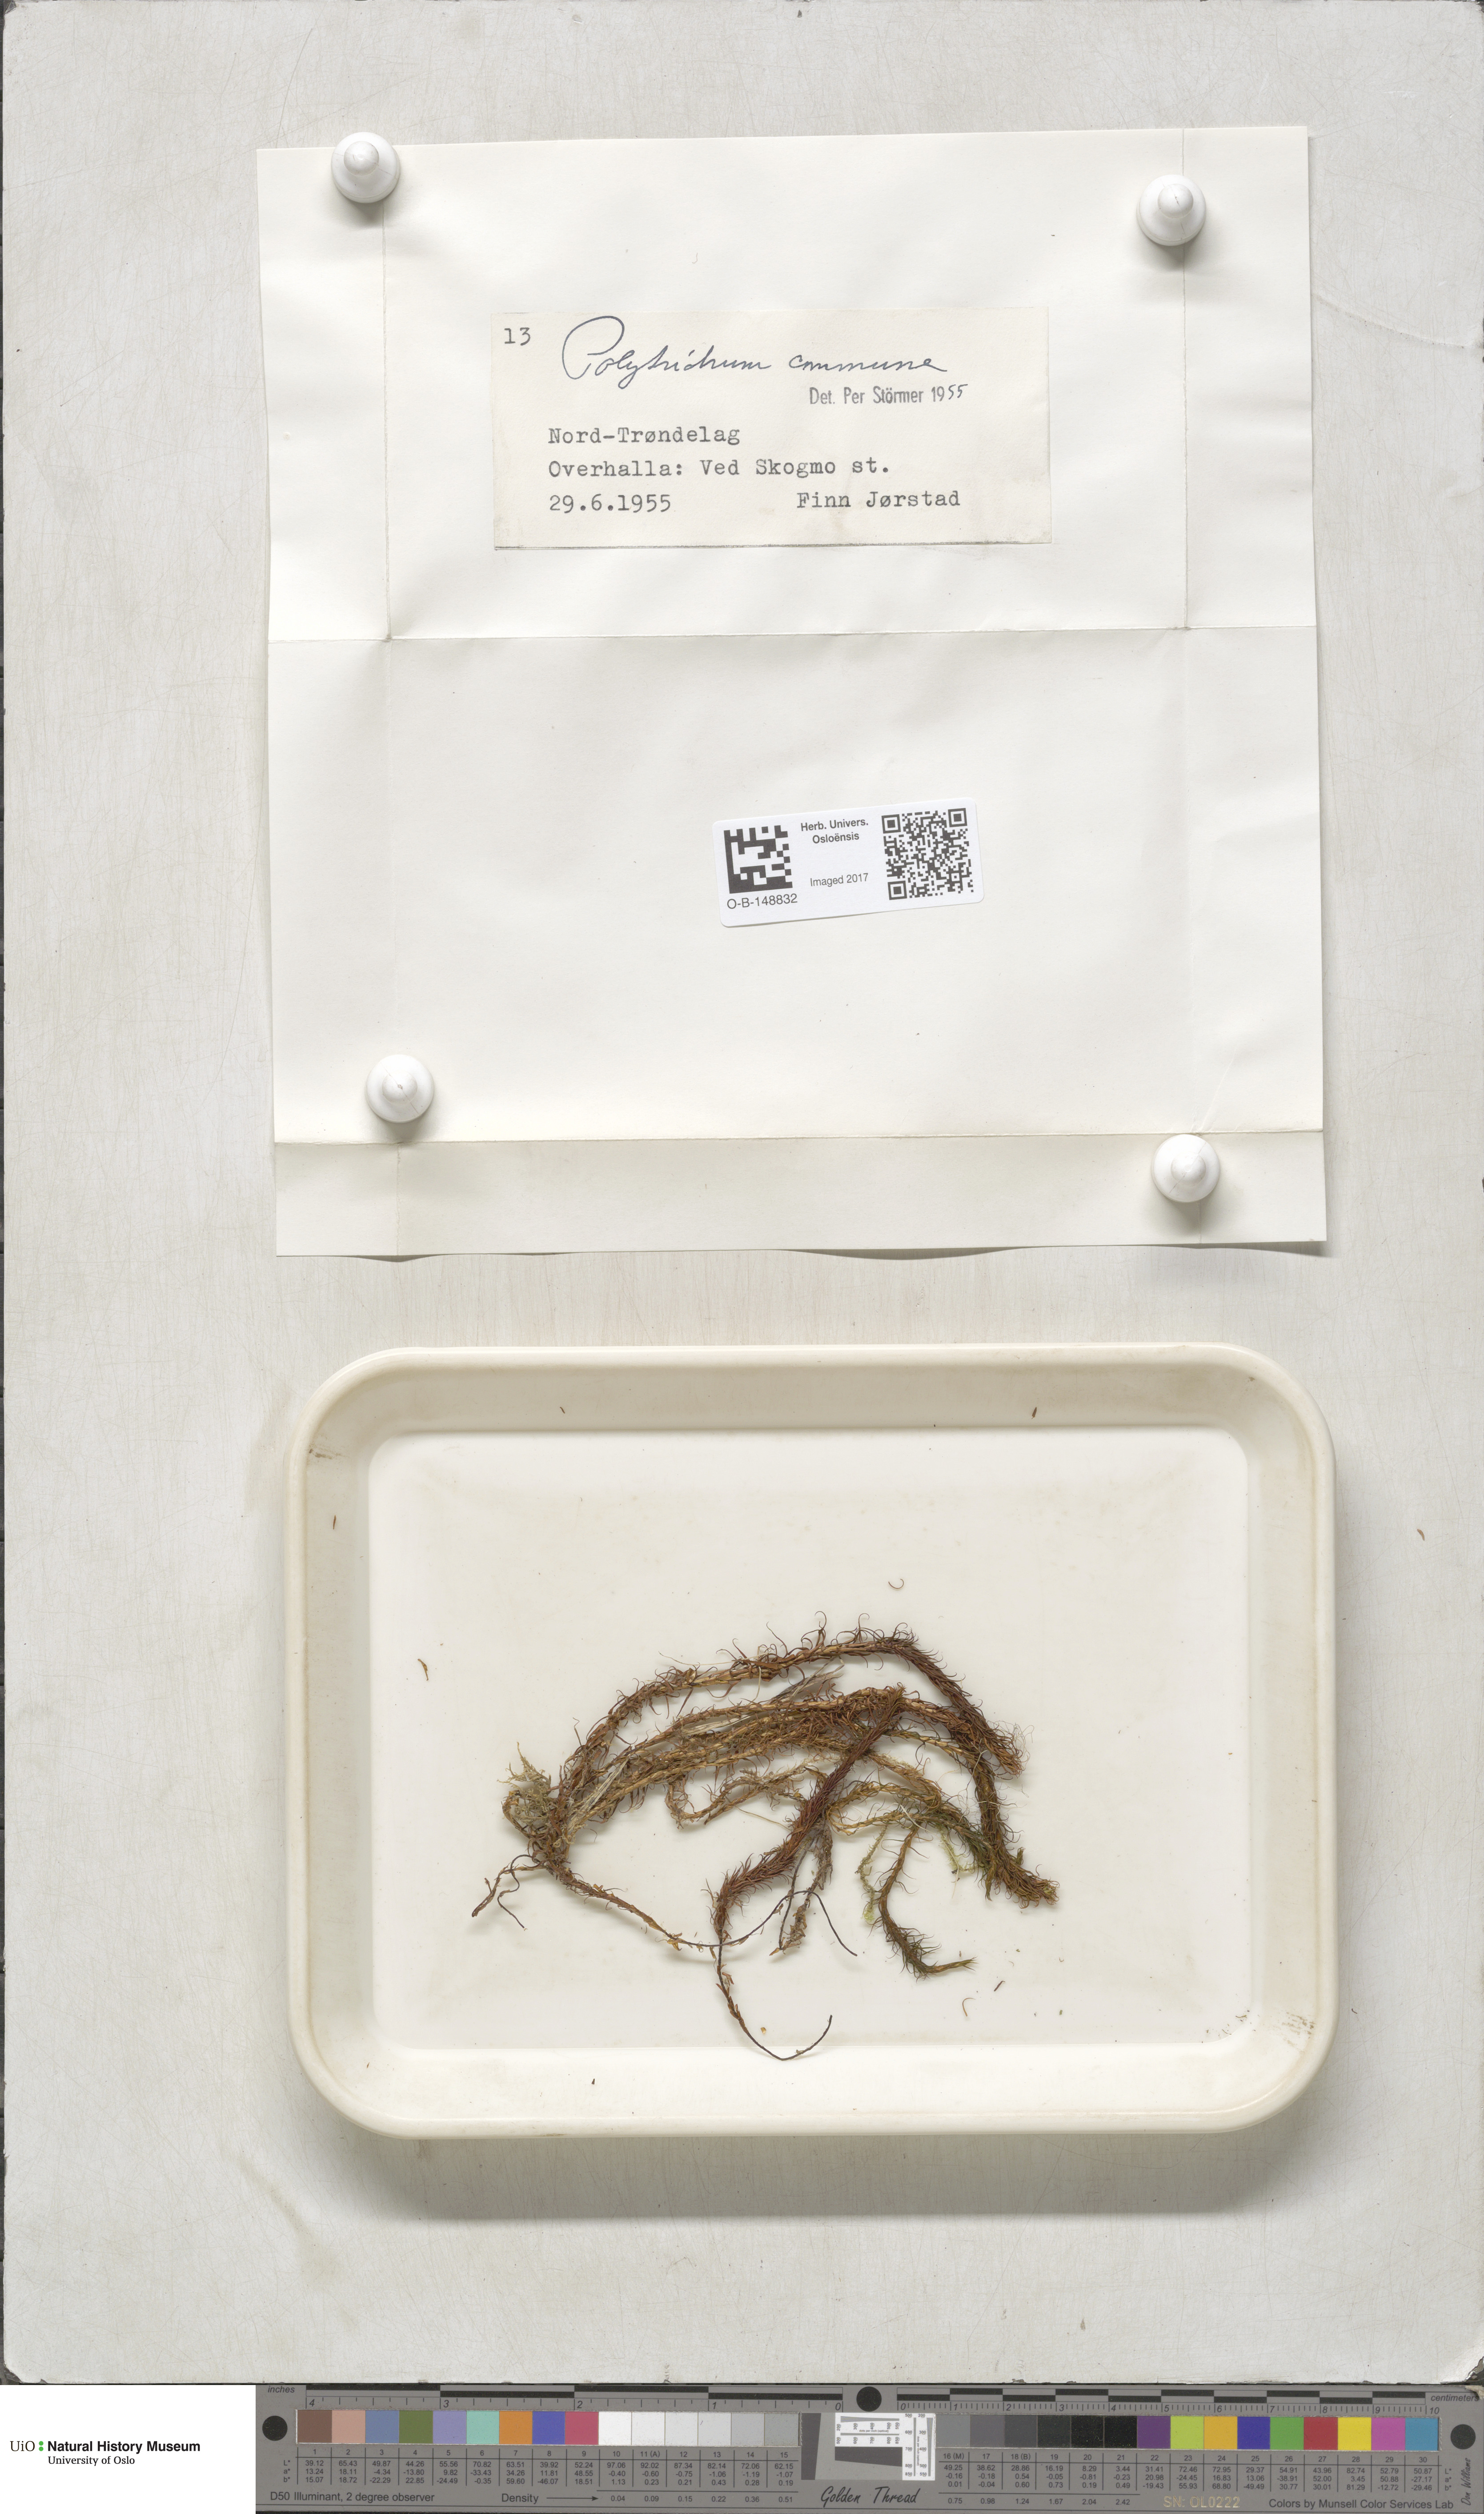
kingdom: Plantae
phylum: Bryophyta
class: Polytrichopsida
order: Polytrichales
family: Polytrichaceae
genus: Polytrichum
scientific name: Polytrichum commune
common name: Common haircap
